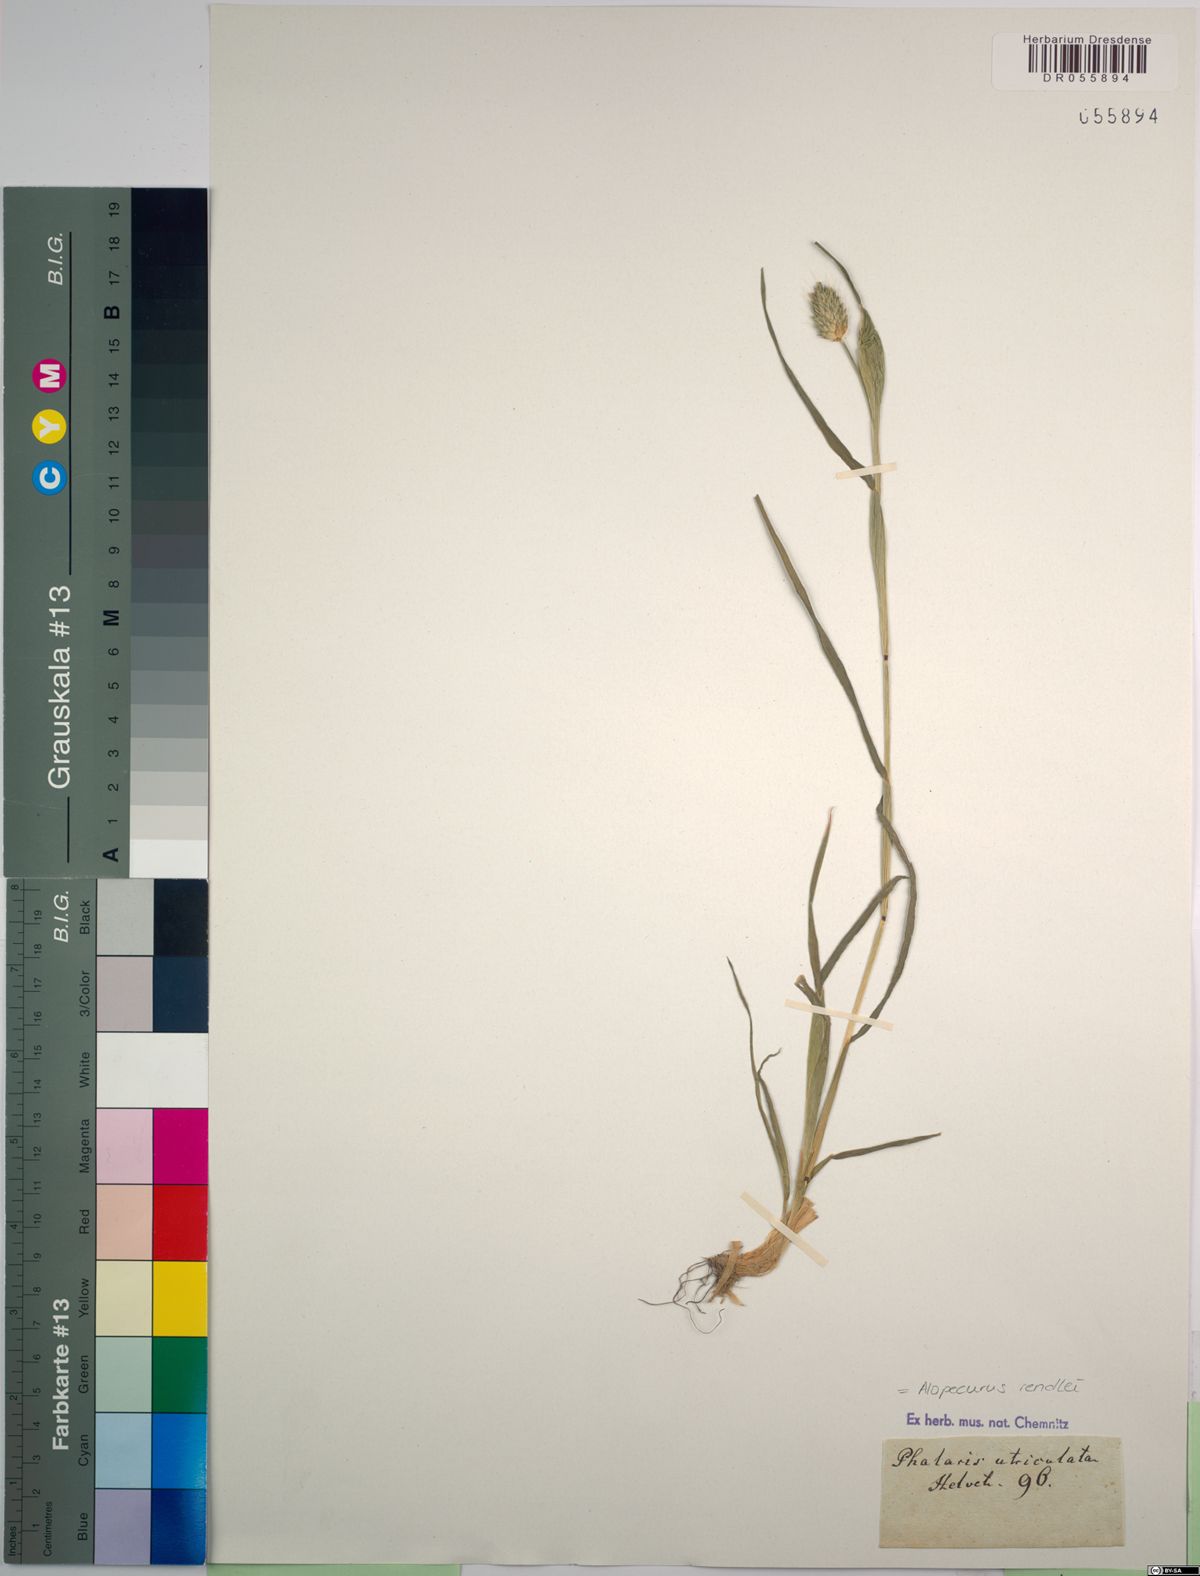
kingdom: Plantae
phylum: Tracheophyta
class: Liliopsida
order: Poales
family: Poaceae
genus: Alopecurus
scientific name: Alopecurus rendlei
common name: Rendle's meadow foxtail
